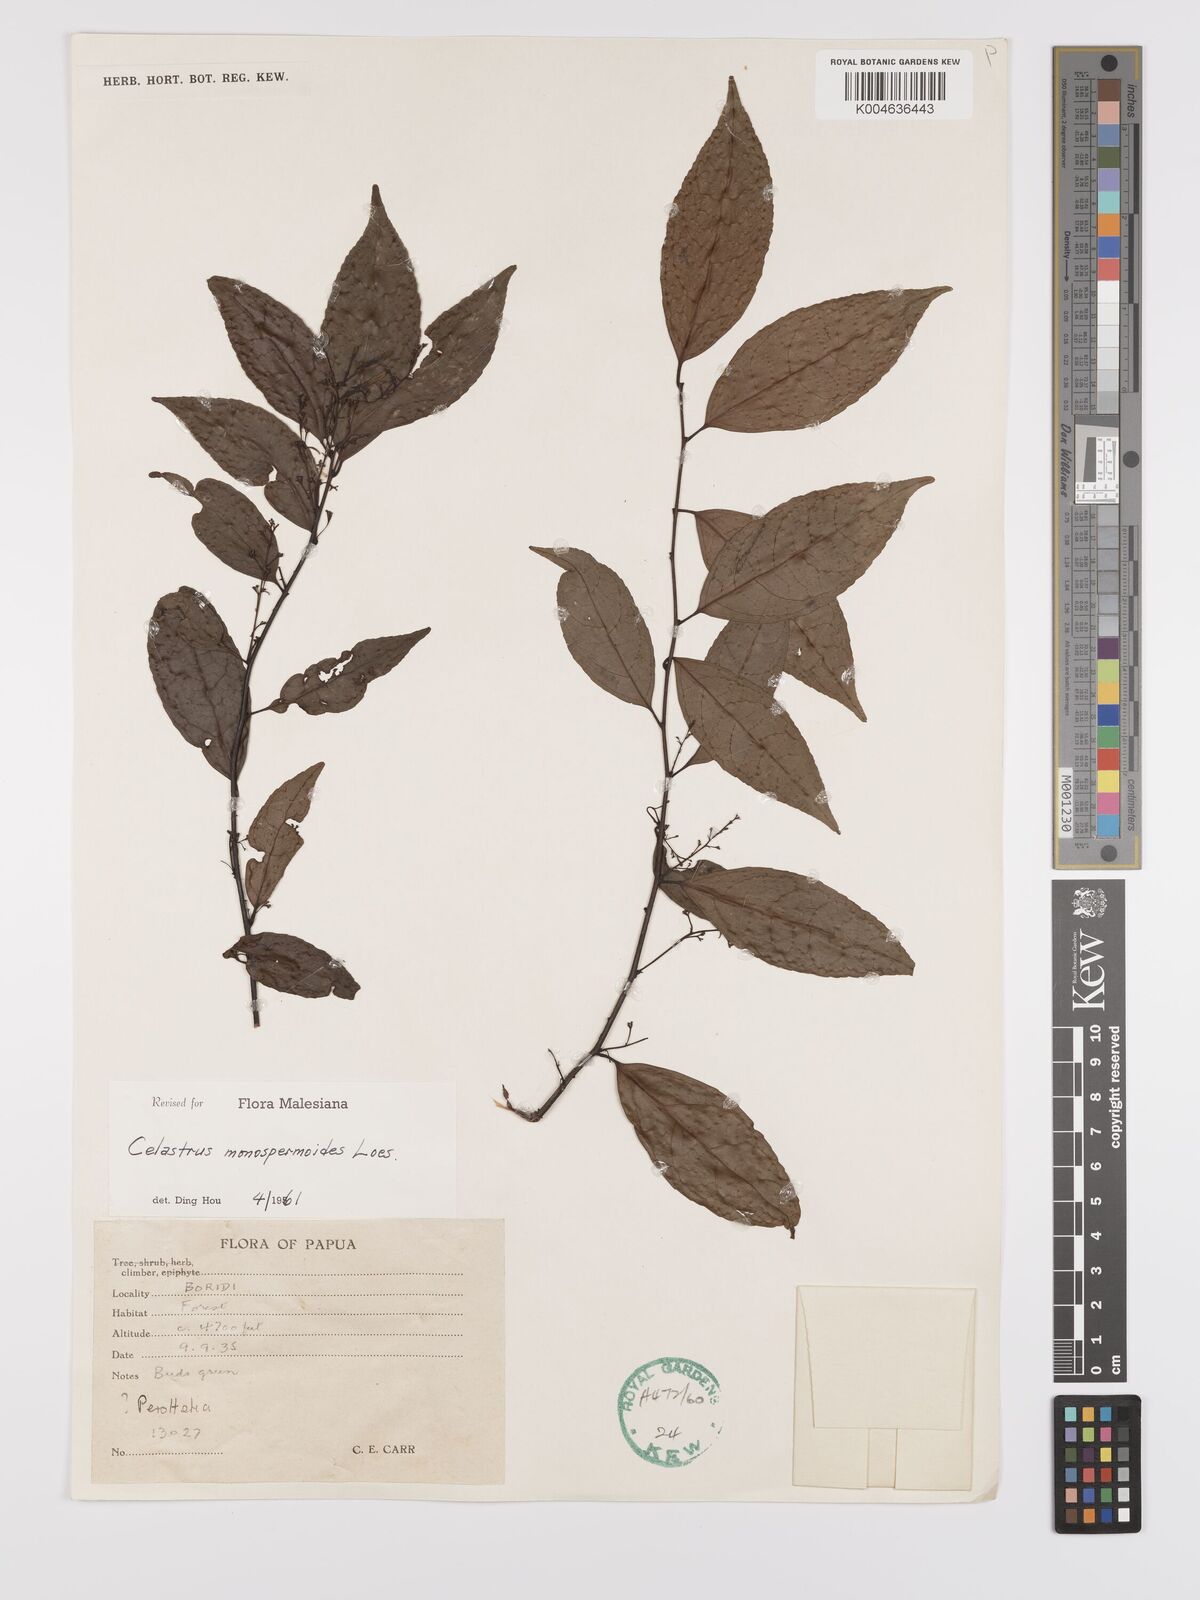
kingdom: Plantae
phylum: Tracheophyta
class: Magnoliopsida
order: Celastrales
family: Celastraceae
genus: Celastrus
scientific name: Celastrus monospermoides
